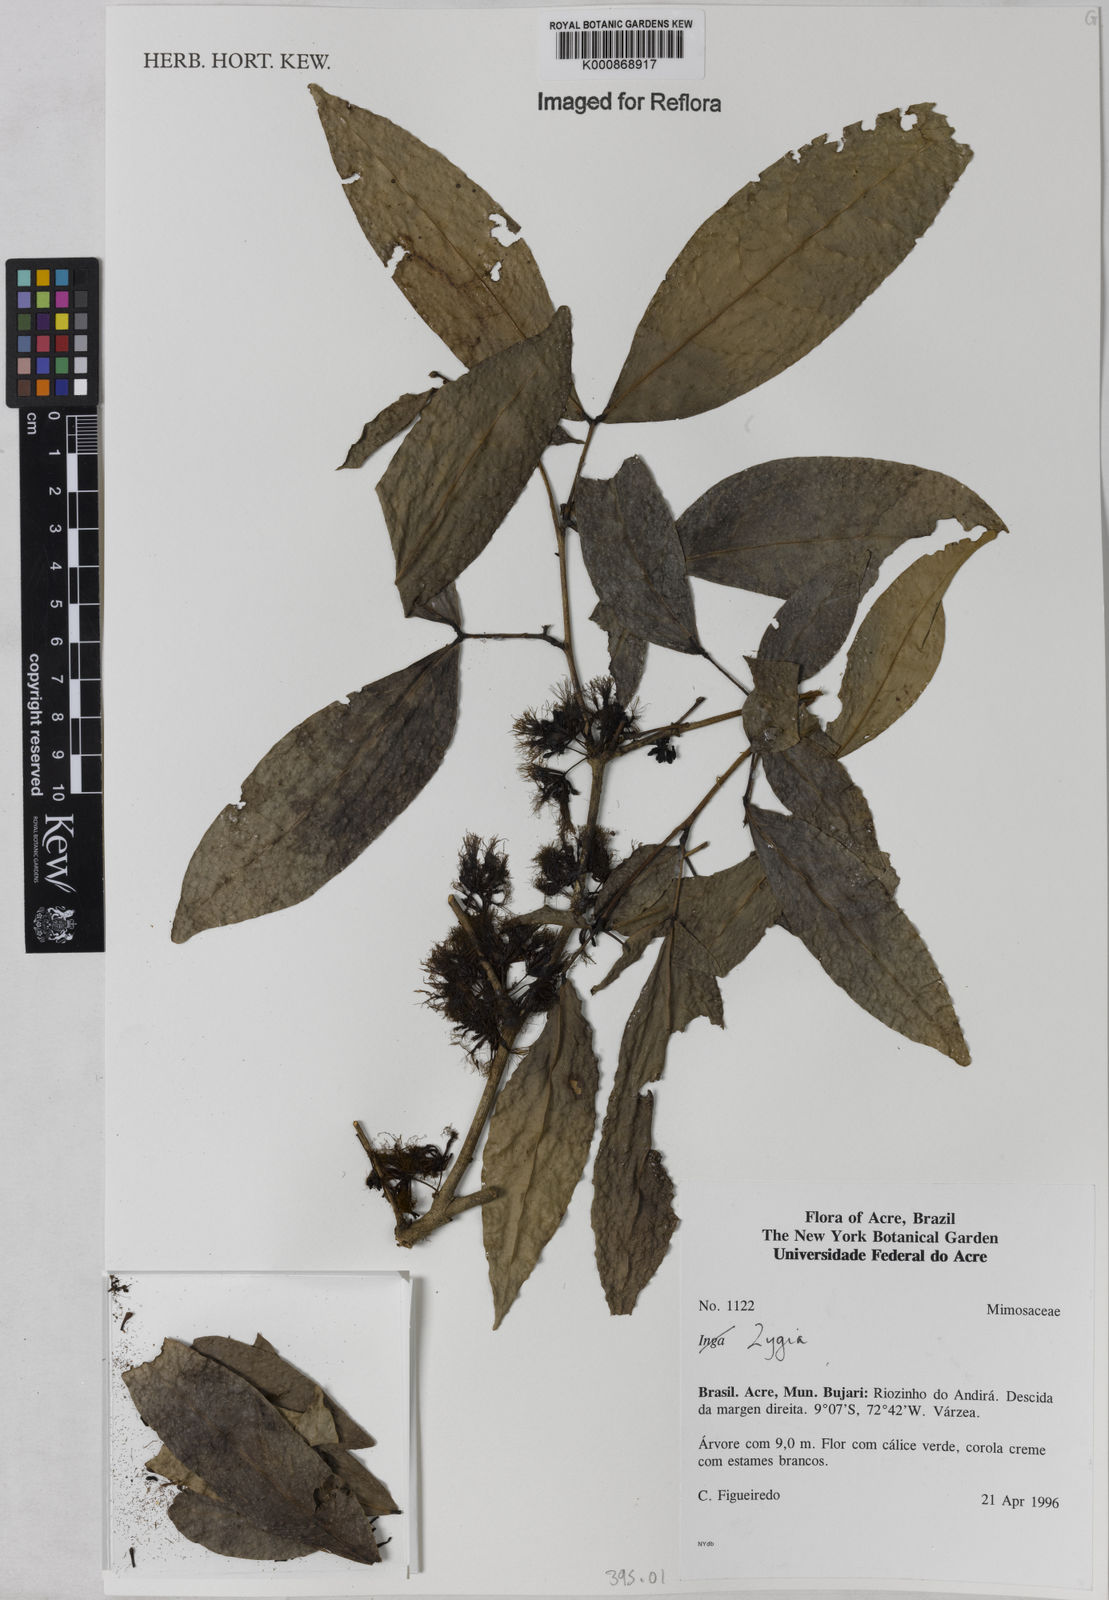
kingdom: Plantae
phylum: Tracheophyta
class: Magnoliopsida
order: Fabales
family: Fabaceae
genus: Zygia
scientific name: Zygia
